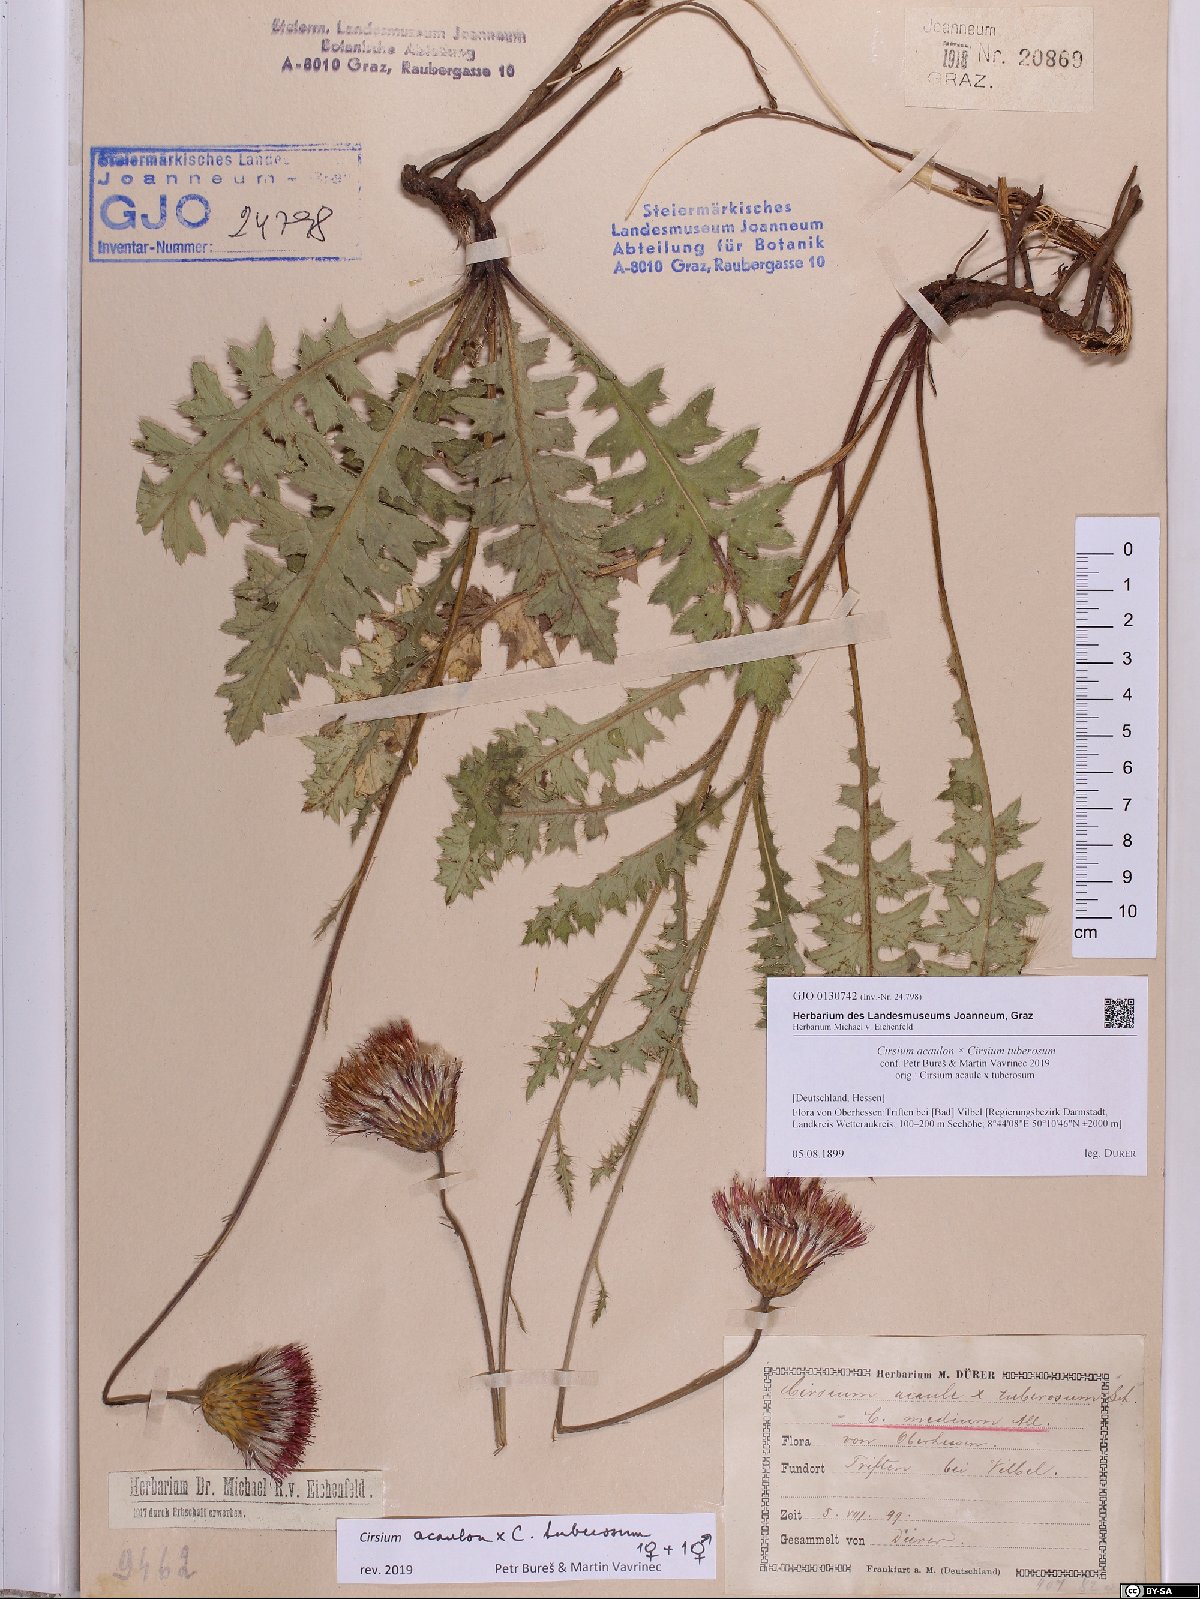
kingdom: Plantae
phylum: Tracheophyta
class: Magnoliopsida
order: Asterales
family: Asteraceae
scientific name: Asteraceae
